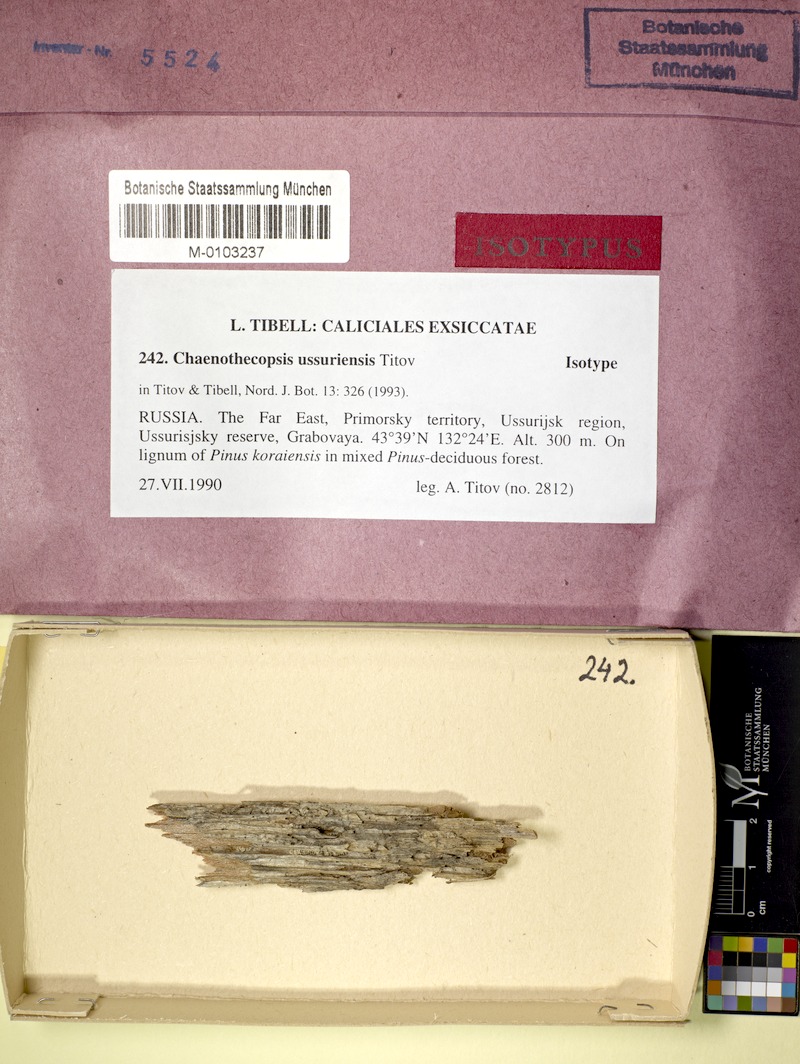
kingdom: Fungi
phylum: Ascomycota
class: Eurotiomycetes
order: Mycocaliciales
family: Mycocaliciaceae
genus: Chaenothecopsis
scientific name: Chaenothecopsis ussuriensis
